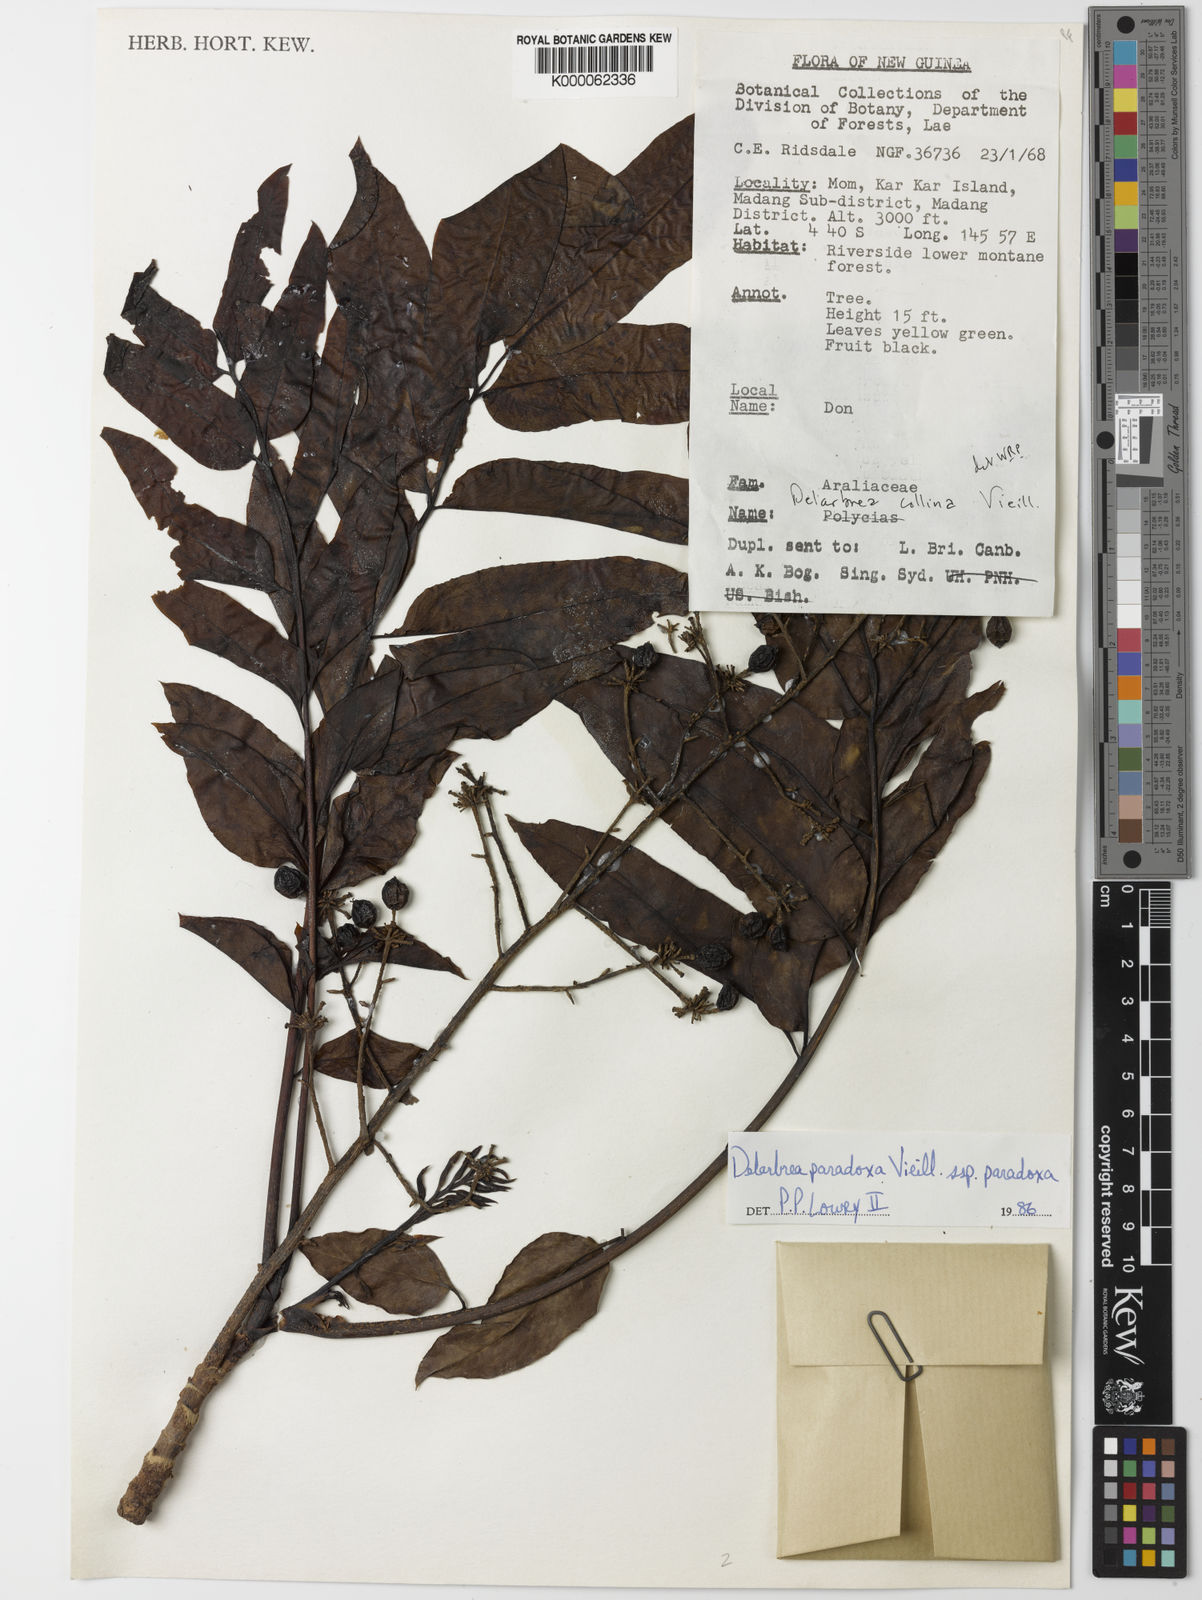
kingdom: Plantae
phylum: Tracheophyta
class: Magnoliopsida
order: Apiales
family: Myodocarpaceae
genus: Delarbrea
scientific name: Delarbrea paradoxa
